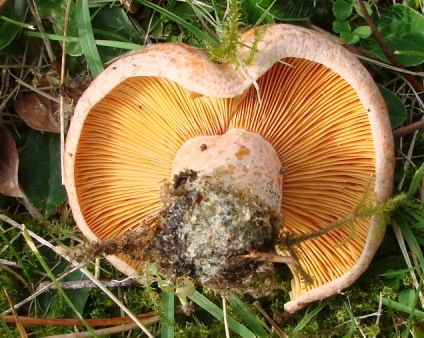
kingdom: Fungi
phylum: Basidiomycota
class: Agaricomycetes
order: Russulales
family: Russulaceae
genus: Lactarius
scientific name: Lactarius deliciosus
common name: velsmagende mælkehat
